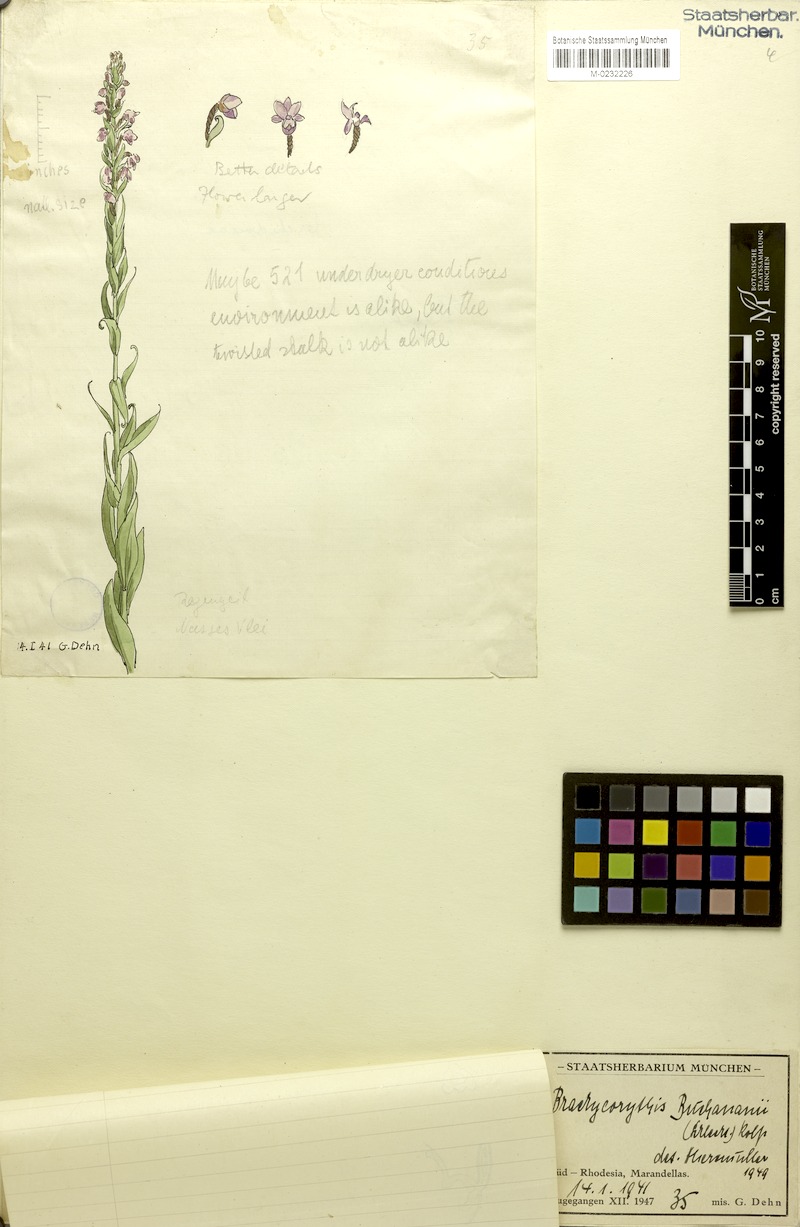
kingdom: Plantae
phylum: Tracheophyta
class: Liliopsida
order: Asparagales
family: Orchidaceae
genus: Brachycorythis
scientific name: Brachycorythis buchananii
